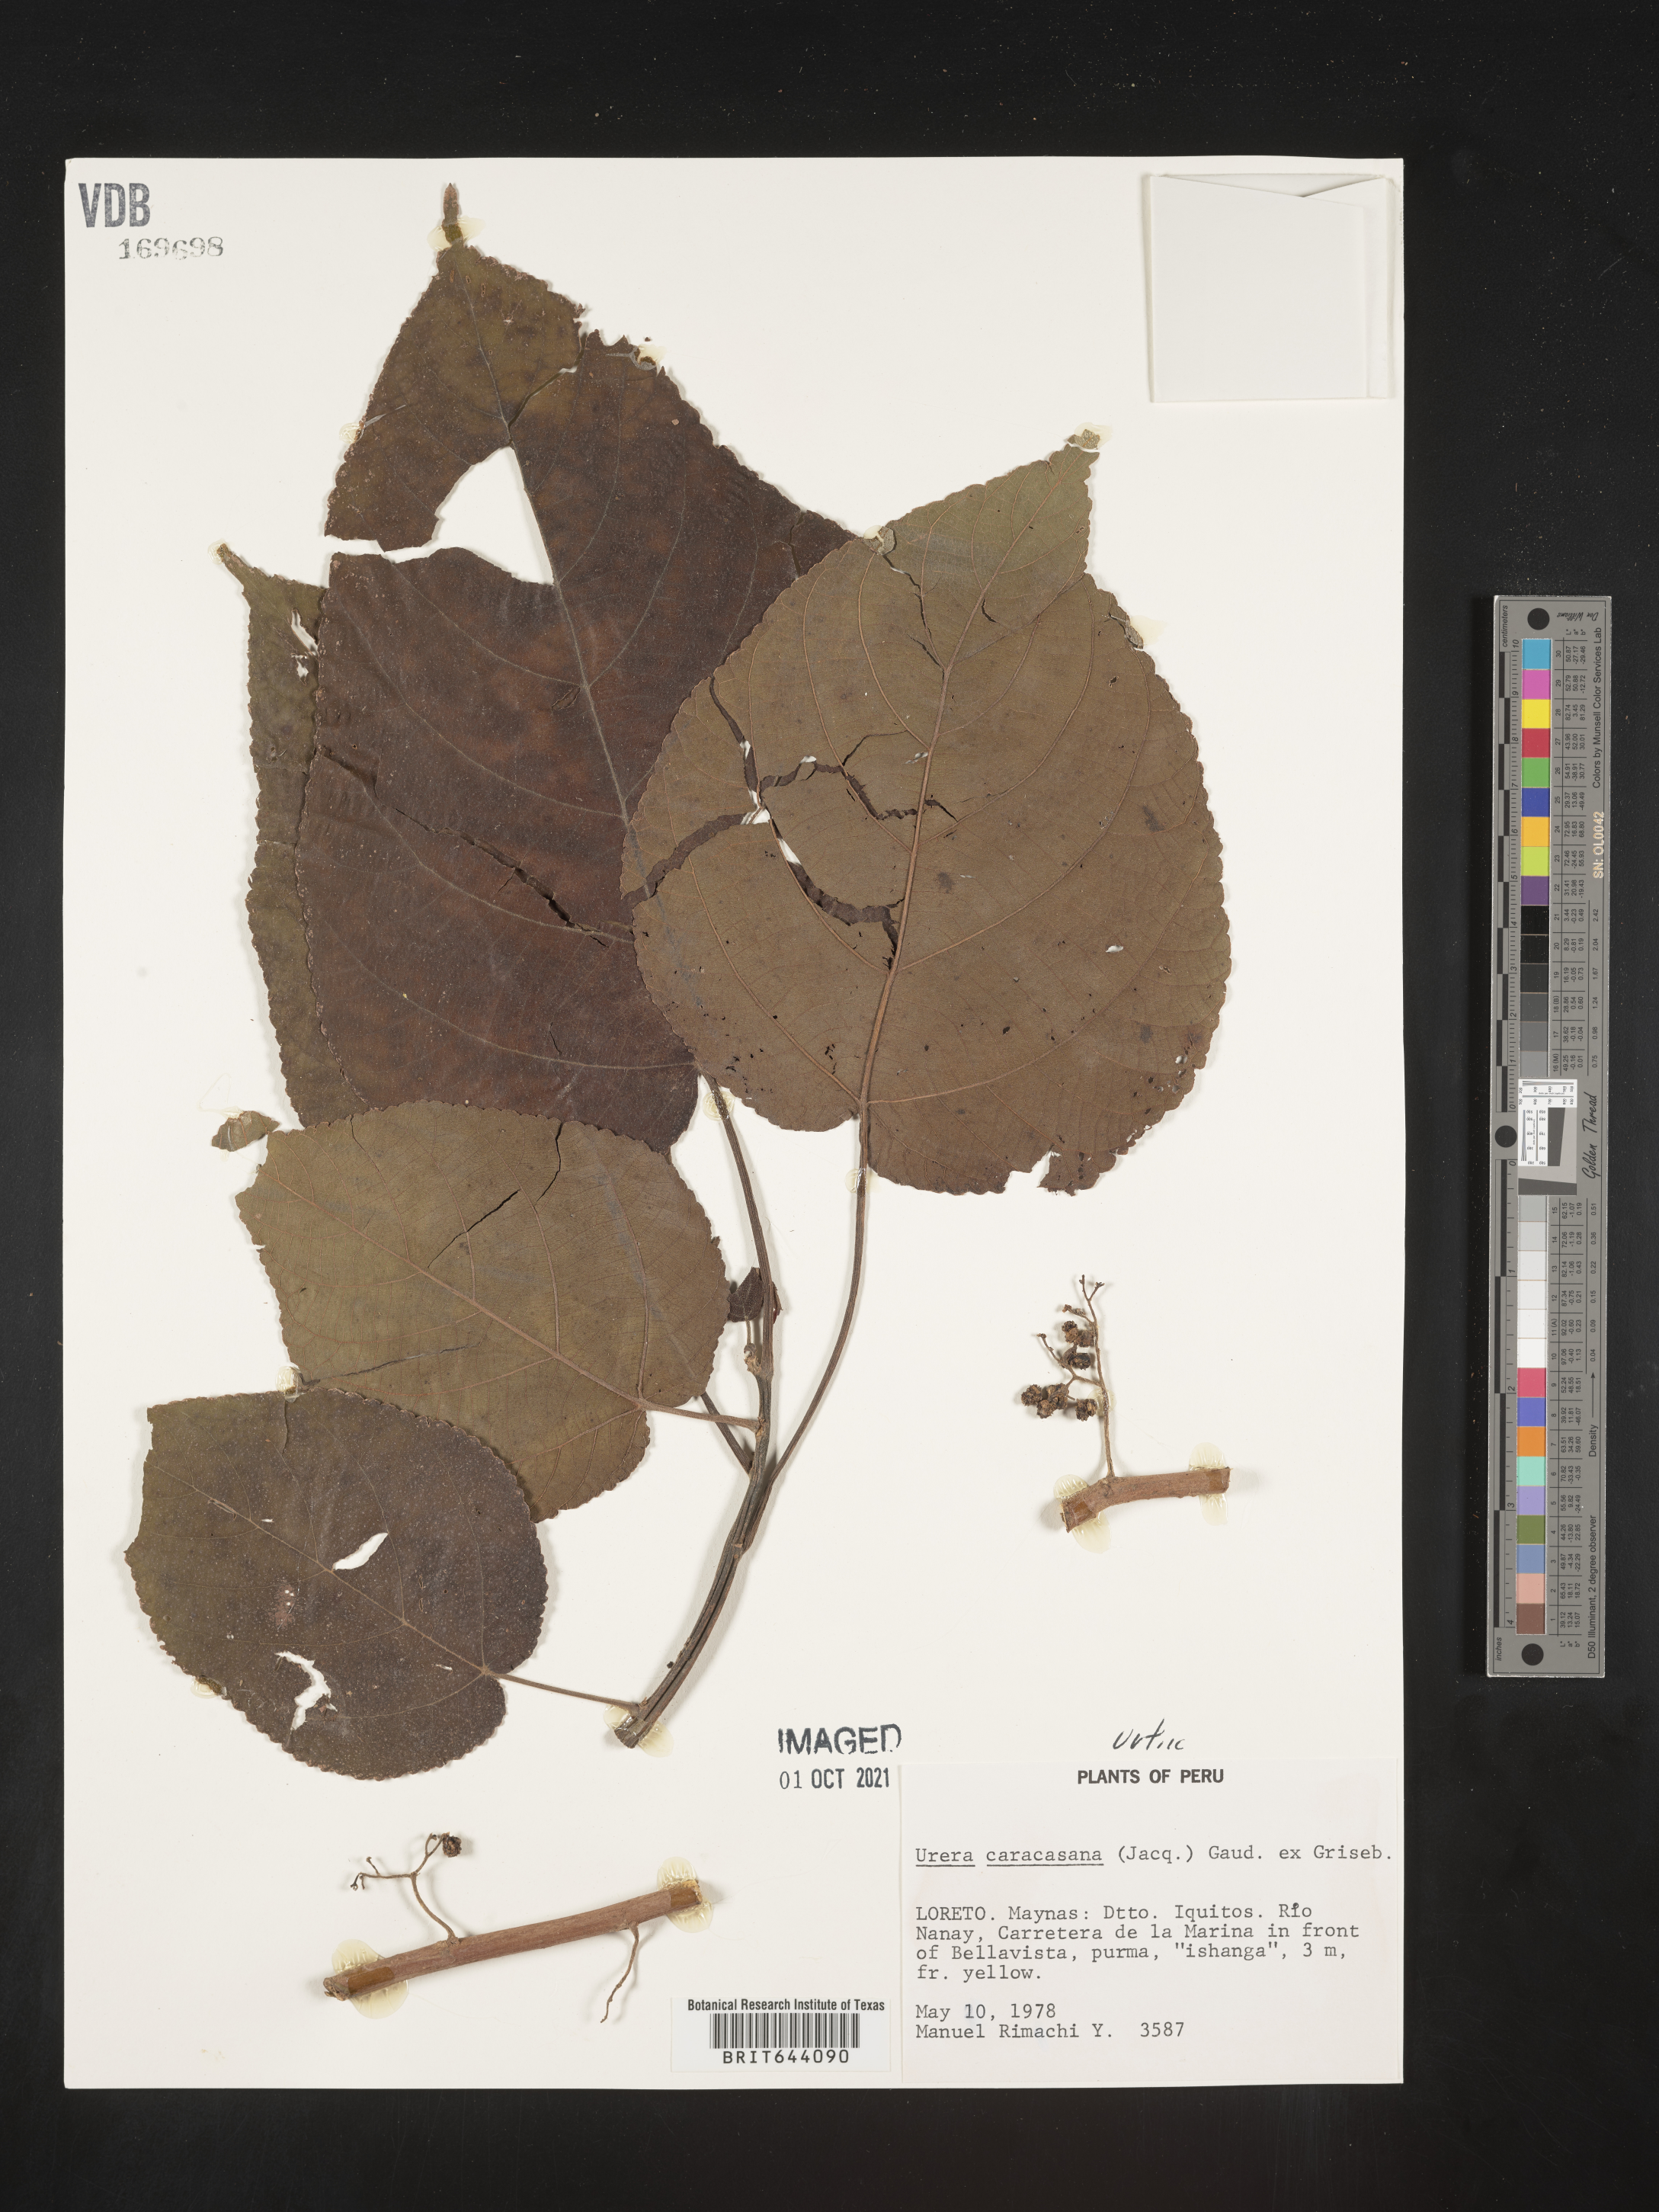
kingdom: Plantae
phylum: Tracheophyta
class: Magnoliopsida
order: Rosales
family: Urticaceae
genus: Urera
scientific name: Urera
